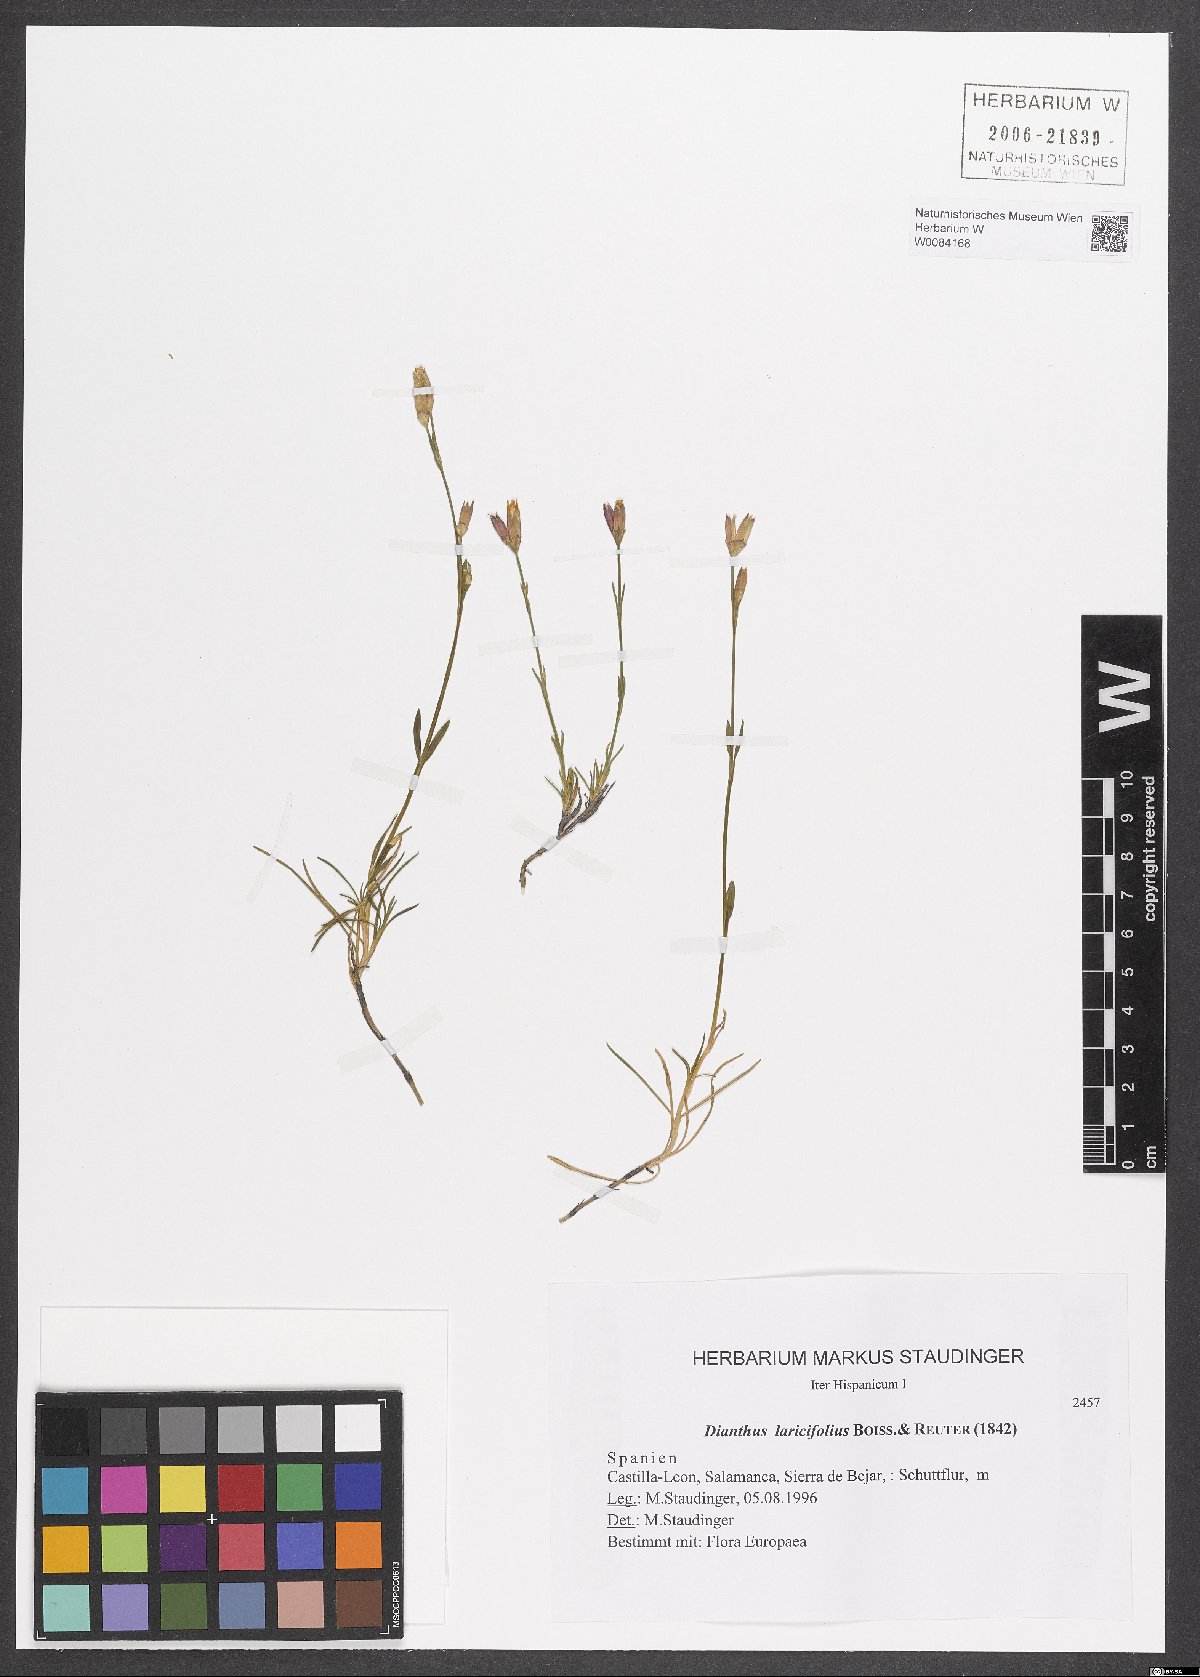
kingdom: Plantae
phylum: Tracheophyta
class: Magnoliopsida
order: Caryophyllales
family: Caryophyllaceae
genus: Dianthus
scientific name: Dianthus laricifolius
